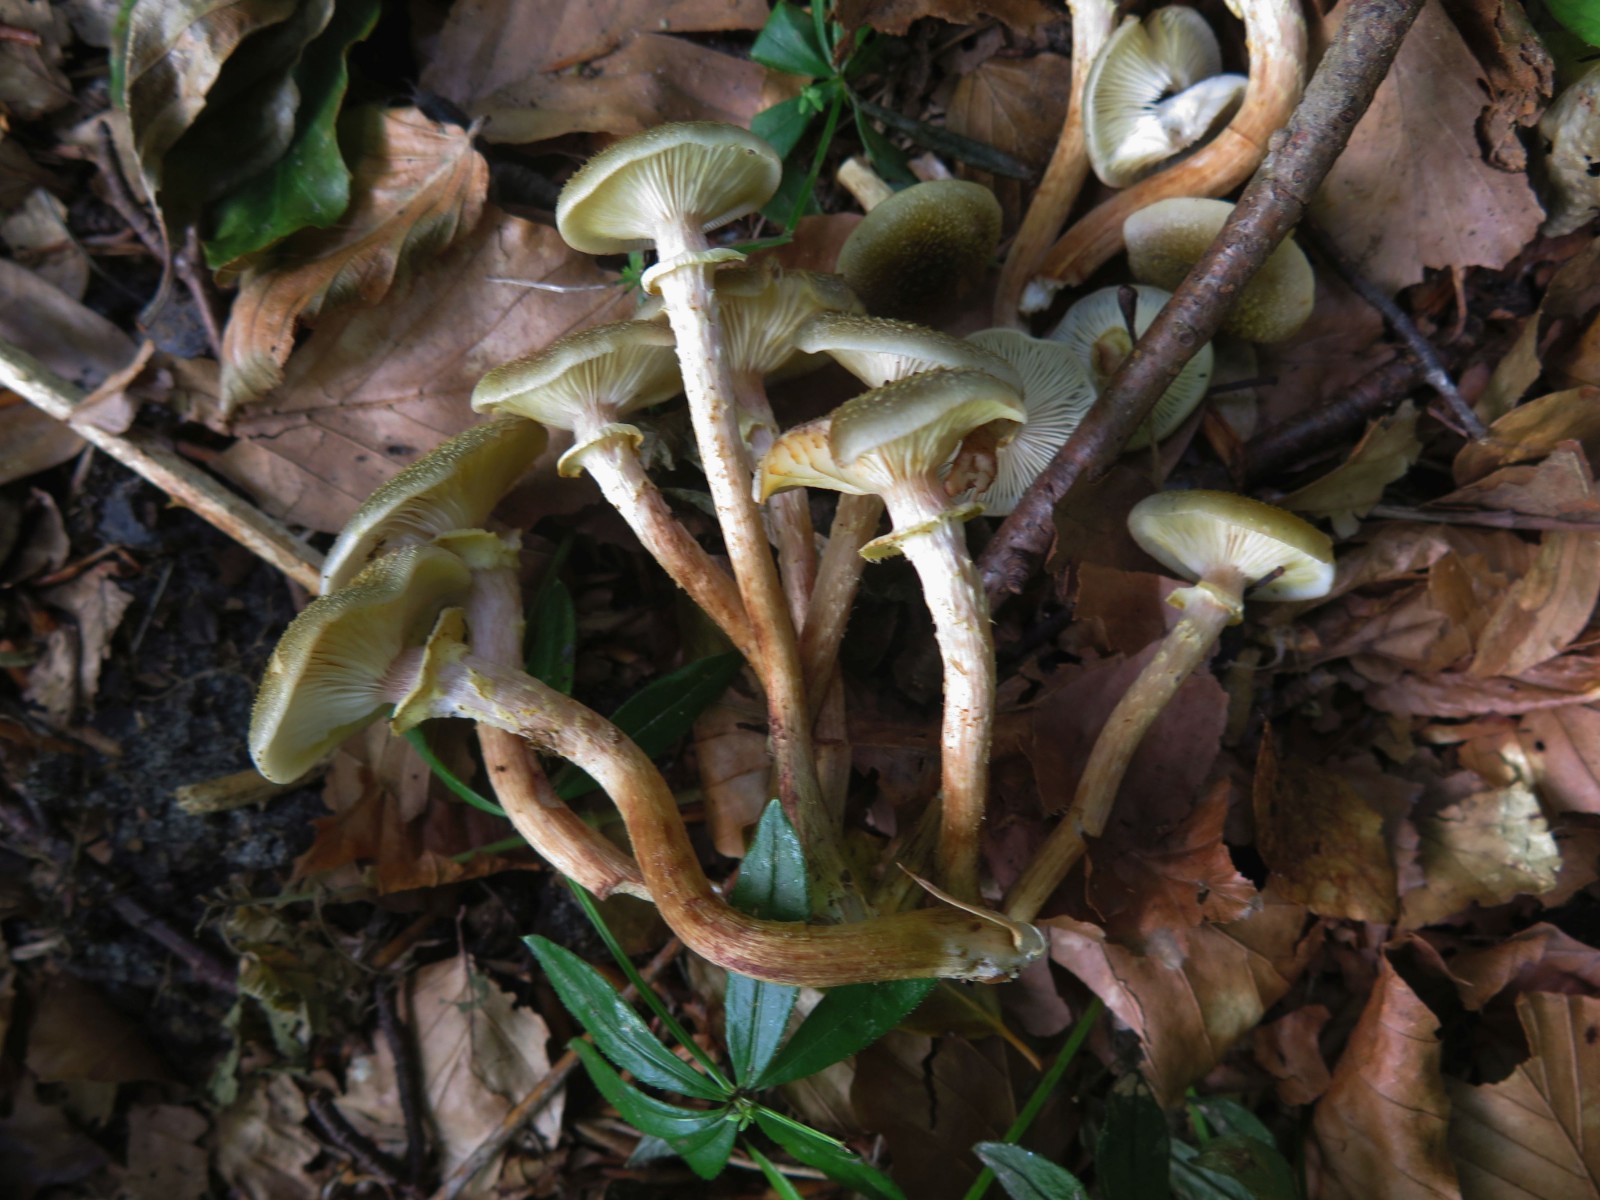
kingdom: Fungi
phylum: Basidiomycota
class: Agaricomycetes
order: Agaricales
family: Physalacriaceae
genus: Armillaria
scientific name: Armillaria mellea
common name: ægte honningsvamp
